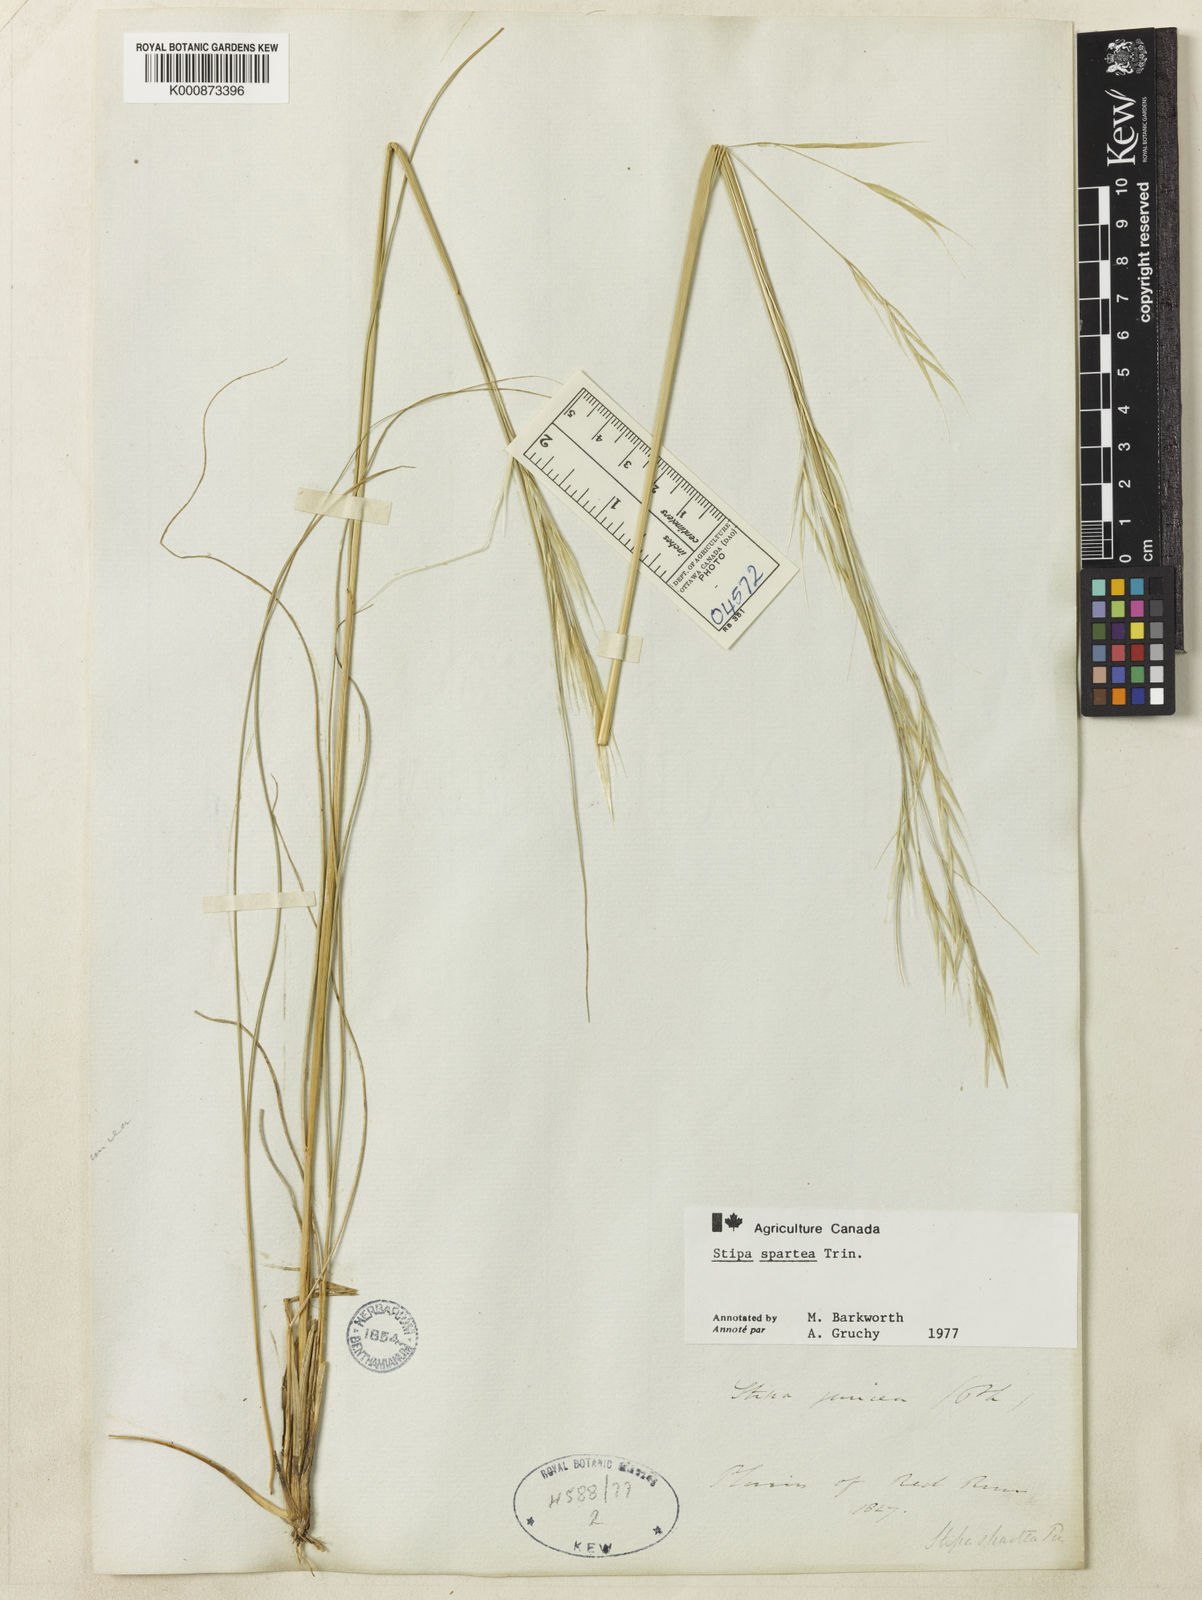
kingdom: Plantae
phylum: Tracheophyta
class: Liliopsida
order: Poales
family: Poaceae
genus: Hesperostipa
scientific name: Hesperostipa spartea
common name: Porcupine grass
